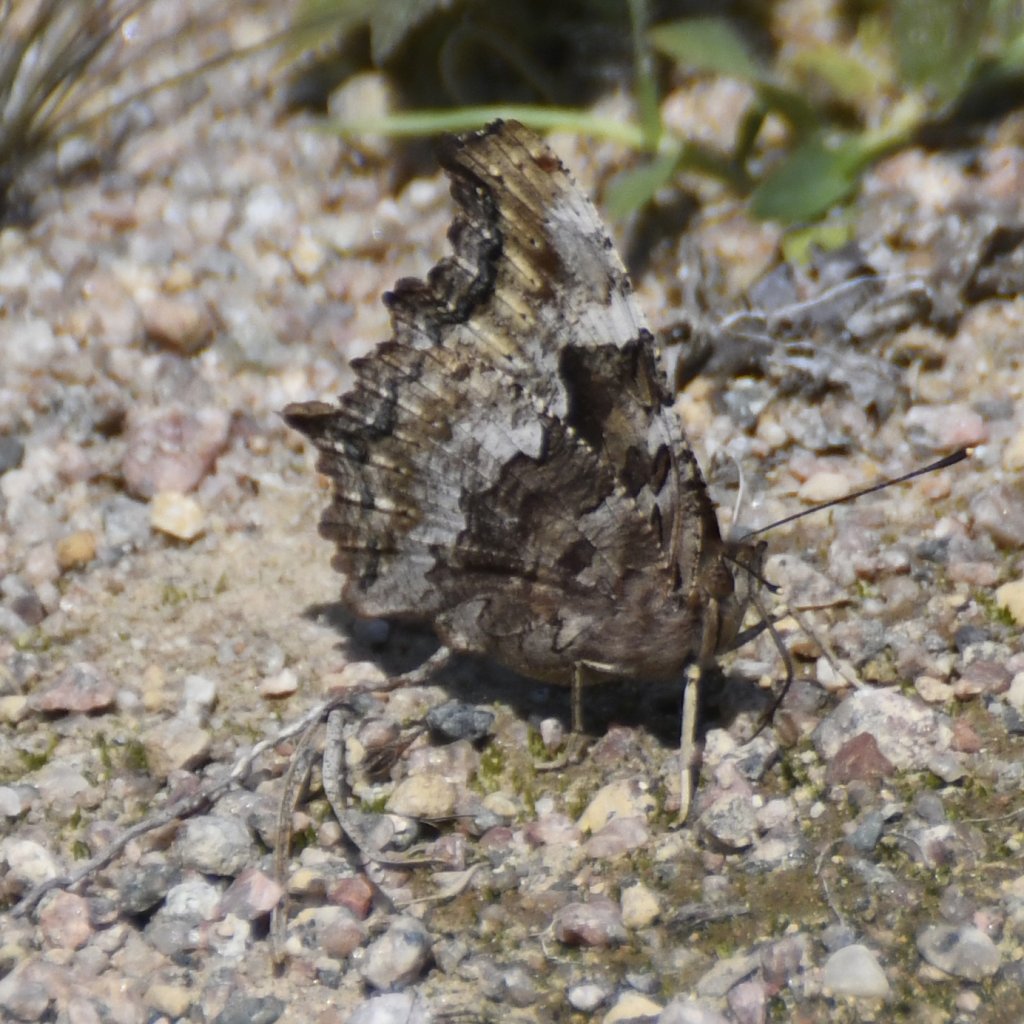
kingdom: Animalia
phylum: Arthropoda
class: Insecta
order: Lepidoptera
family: Nymphalidae
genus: Polygonia
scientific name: Polygonia vaualbum
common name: Compton Tortoiseshell
